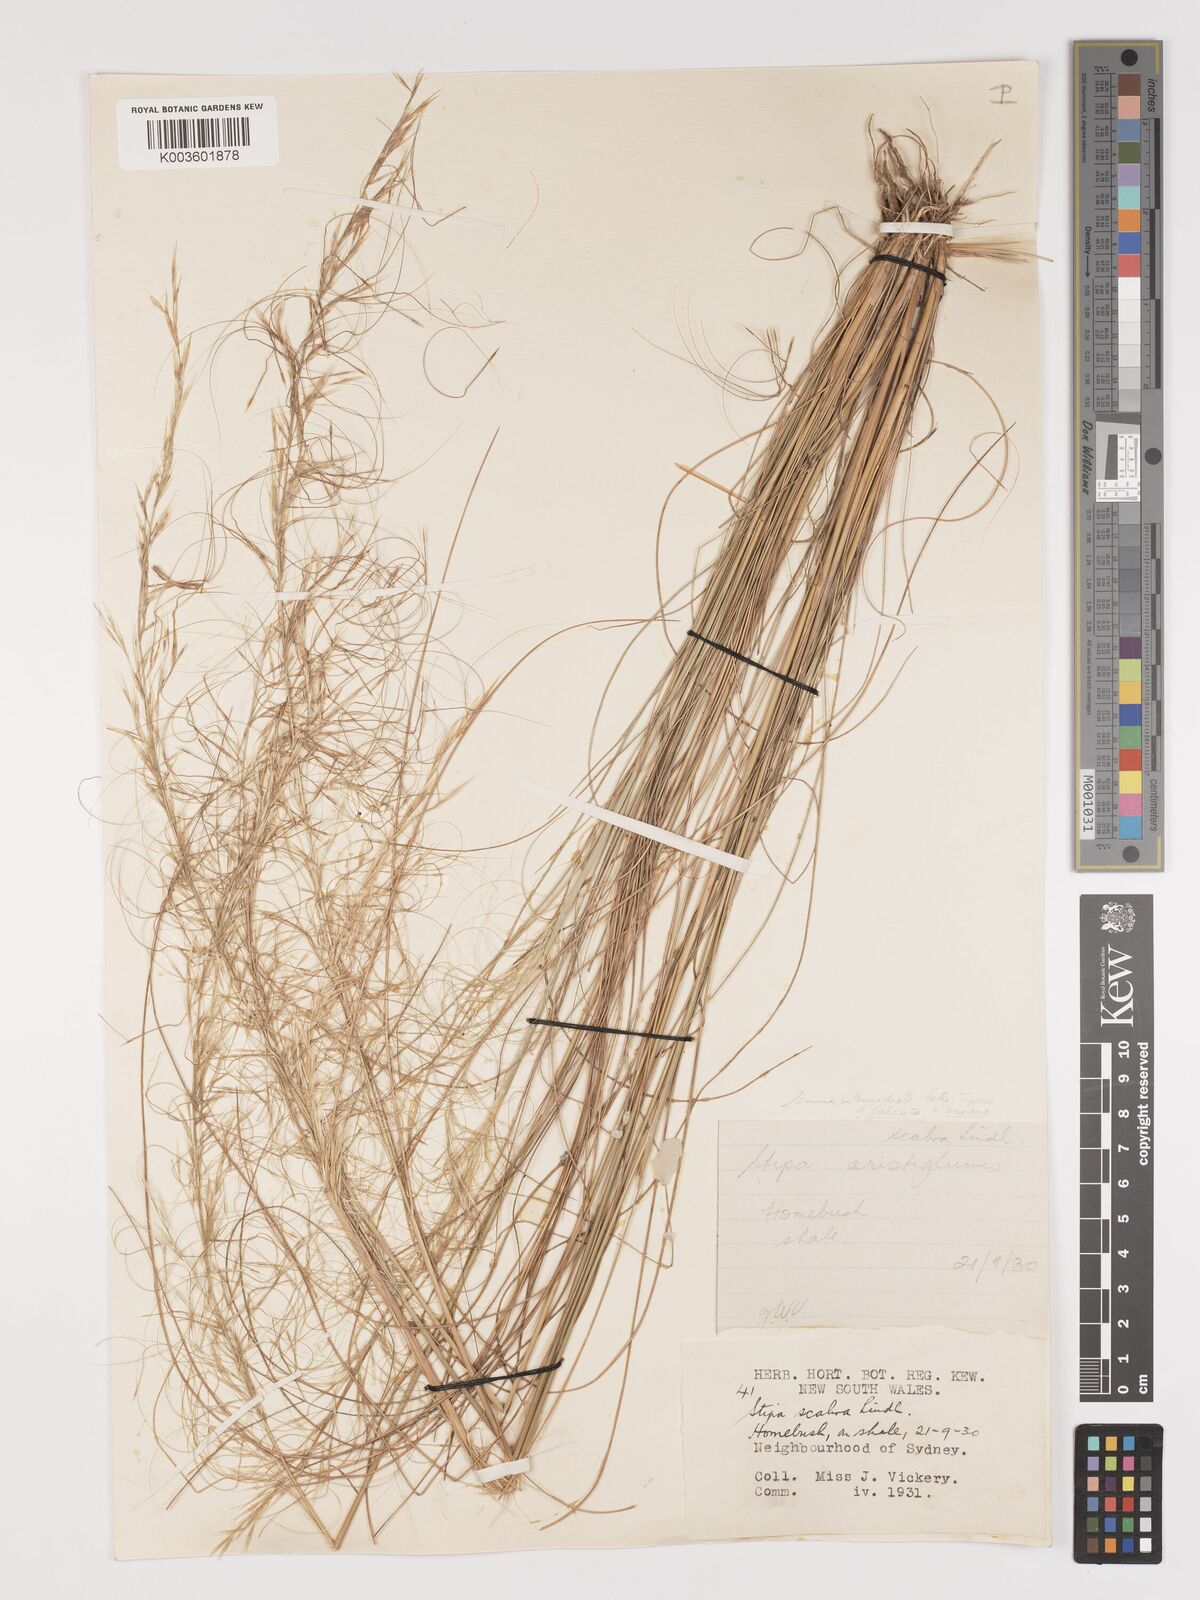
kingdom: Plantae
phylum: Tracheophyta
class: Liliopsida
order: Poales
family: Poaceae
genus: Austrostipa
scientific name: Austrostipa nitida
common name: Balcarra grass
